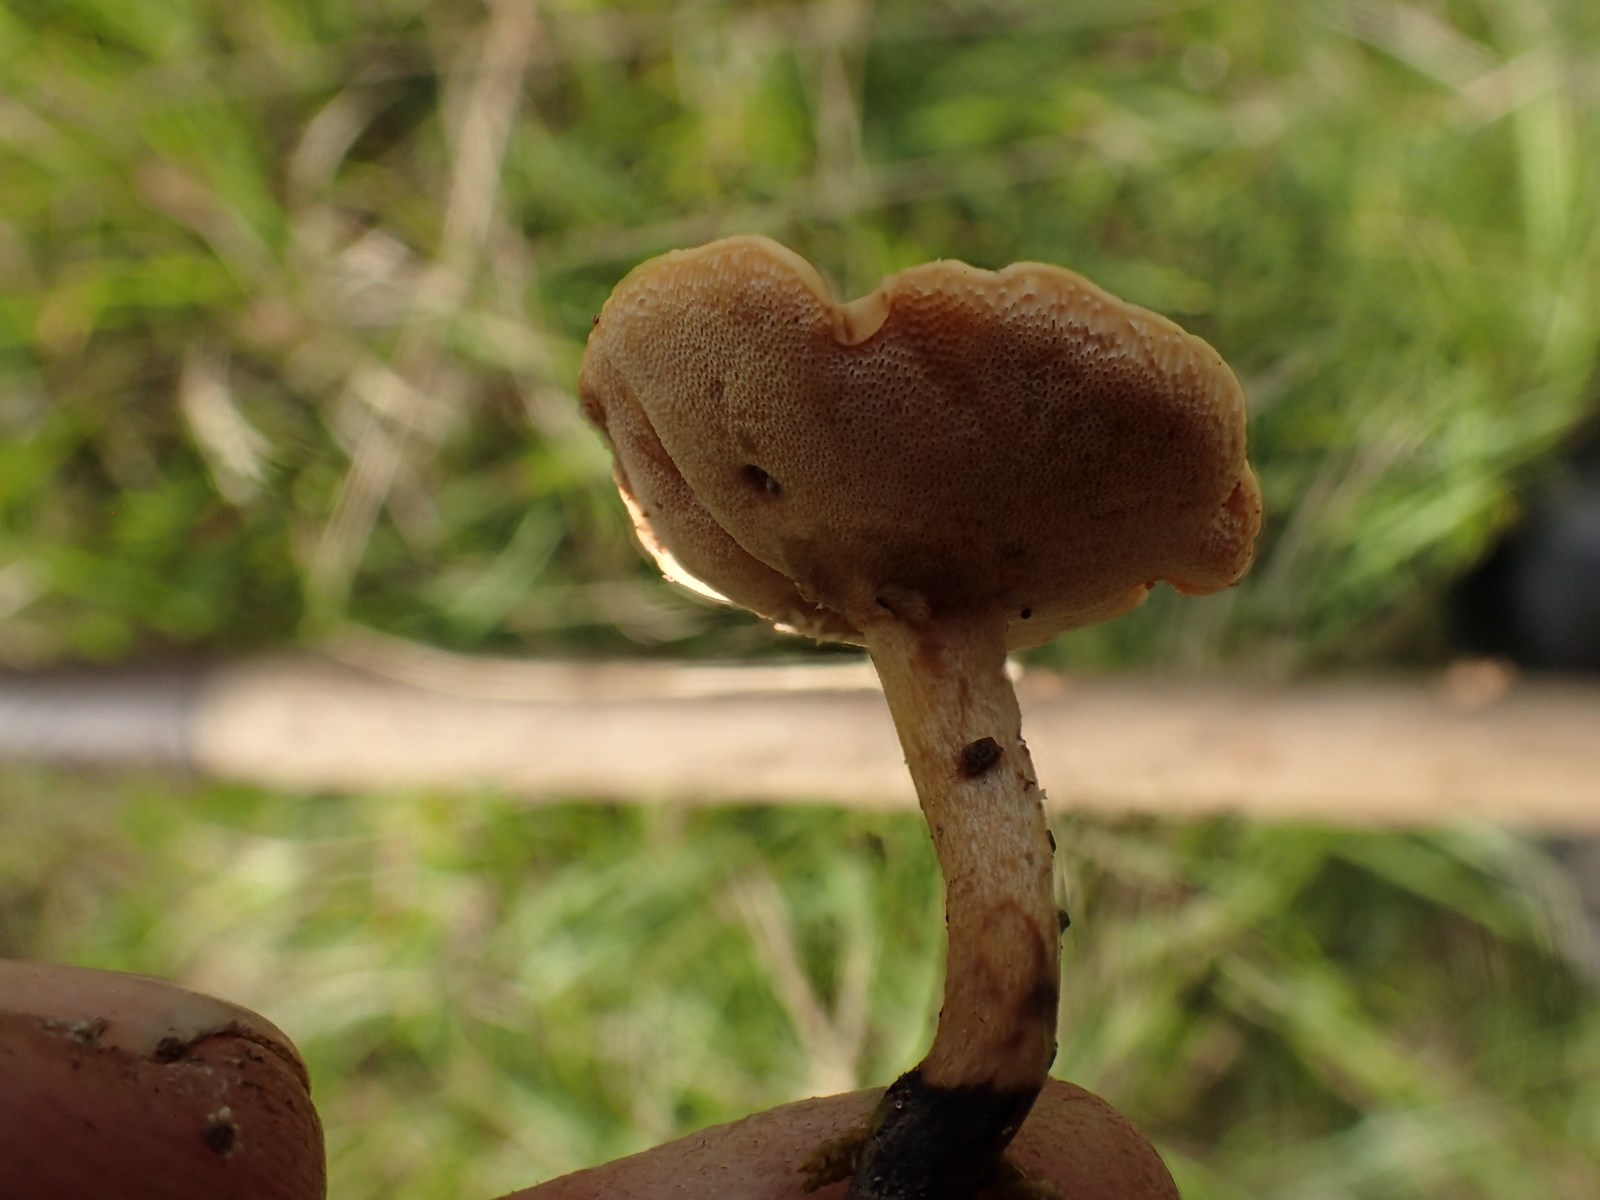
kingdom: Fungi
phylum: Basidiomycota
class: Agaricomycetes
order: Polyporales
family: Polyporaceae
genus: Cerioporus
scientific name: Cerioporus varius
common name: foranderlig stilkporesvamp
